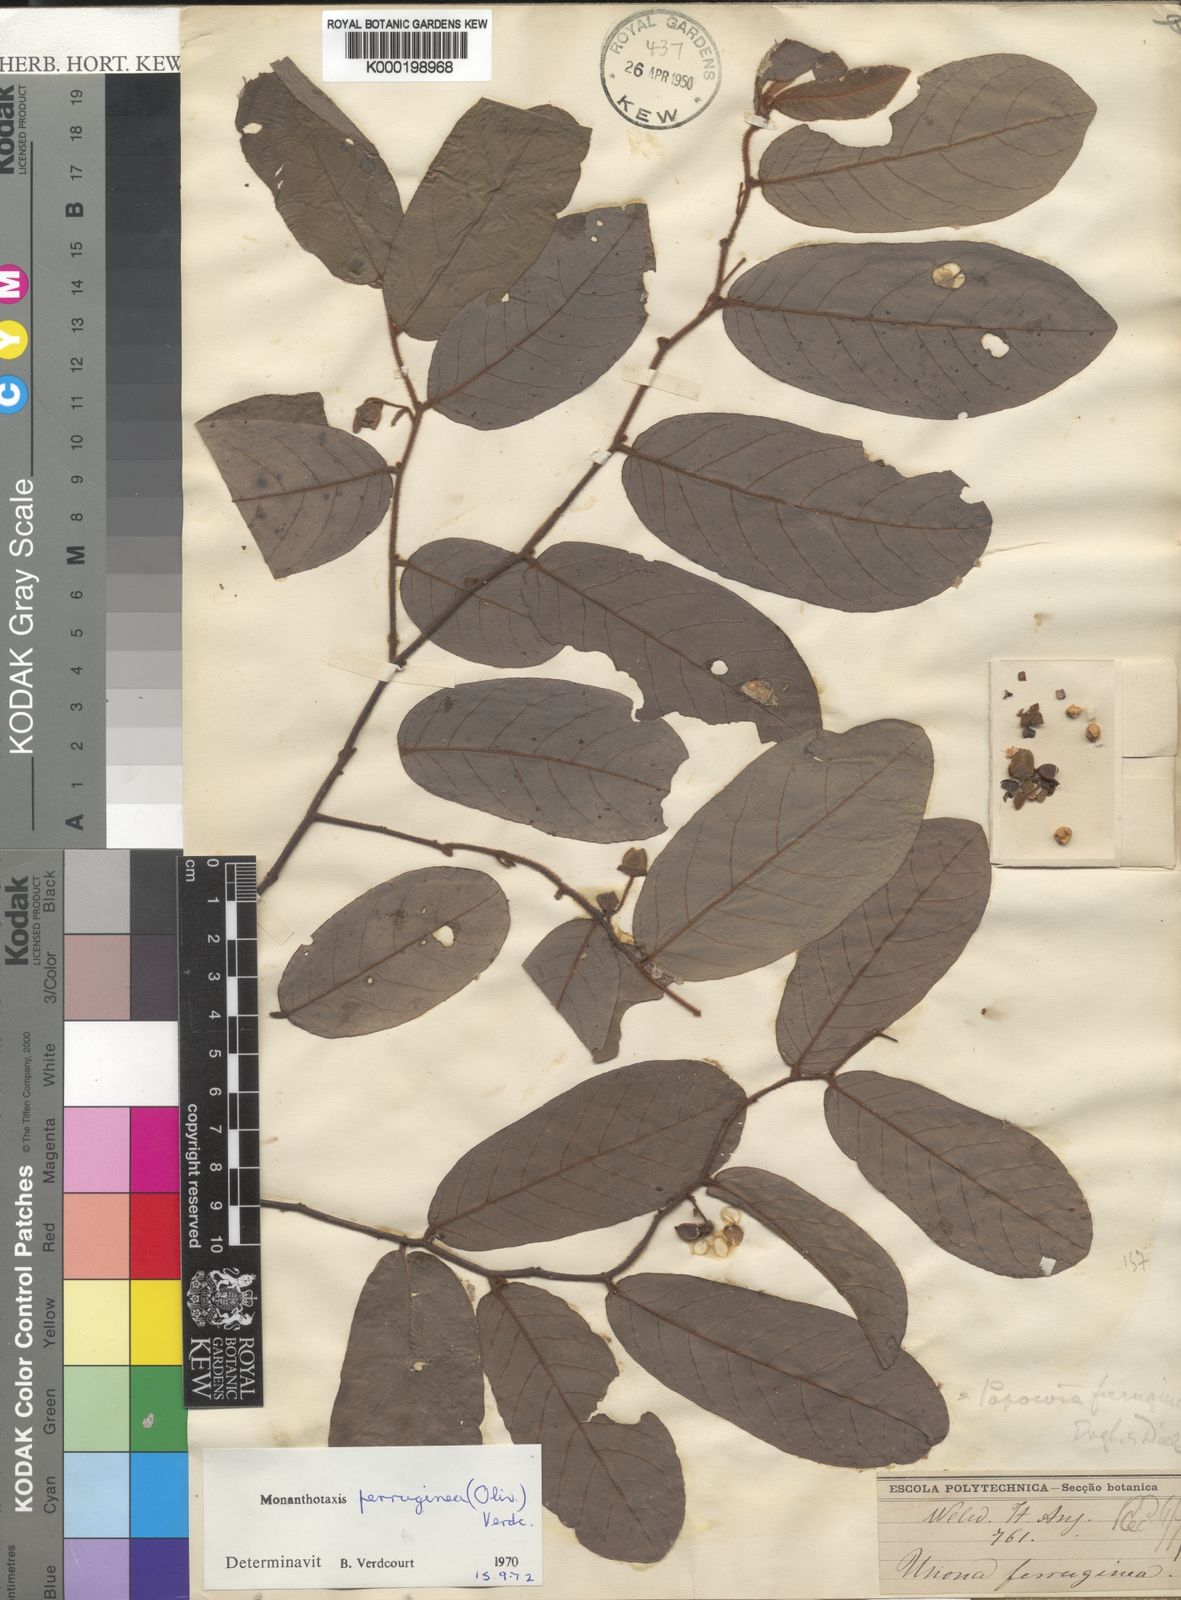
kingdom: Plantae
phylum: Tracheophyta
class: Magnoliopsida
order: Magnoliales
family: Annonaceae
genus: Monanthotaxis
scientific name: Monanthotaxis ferruginea
